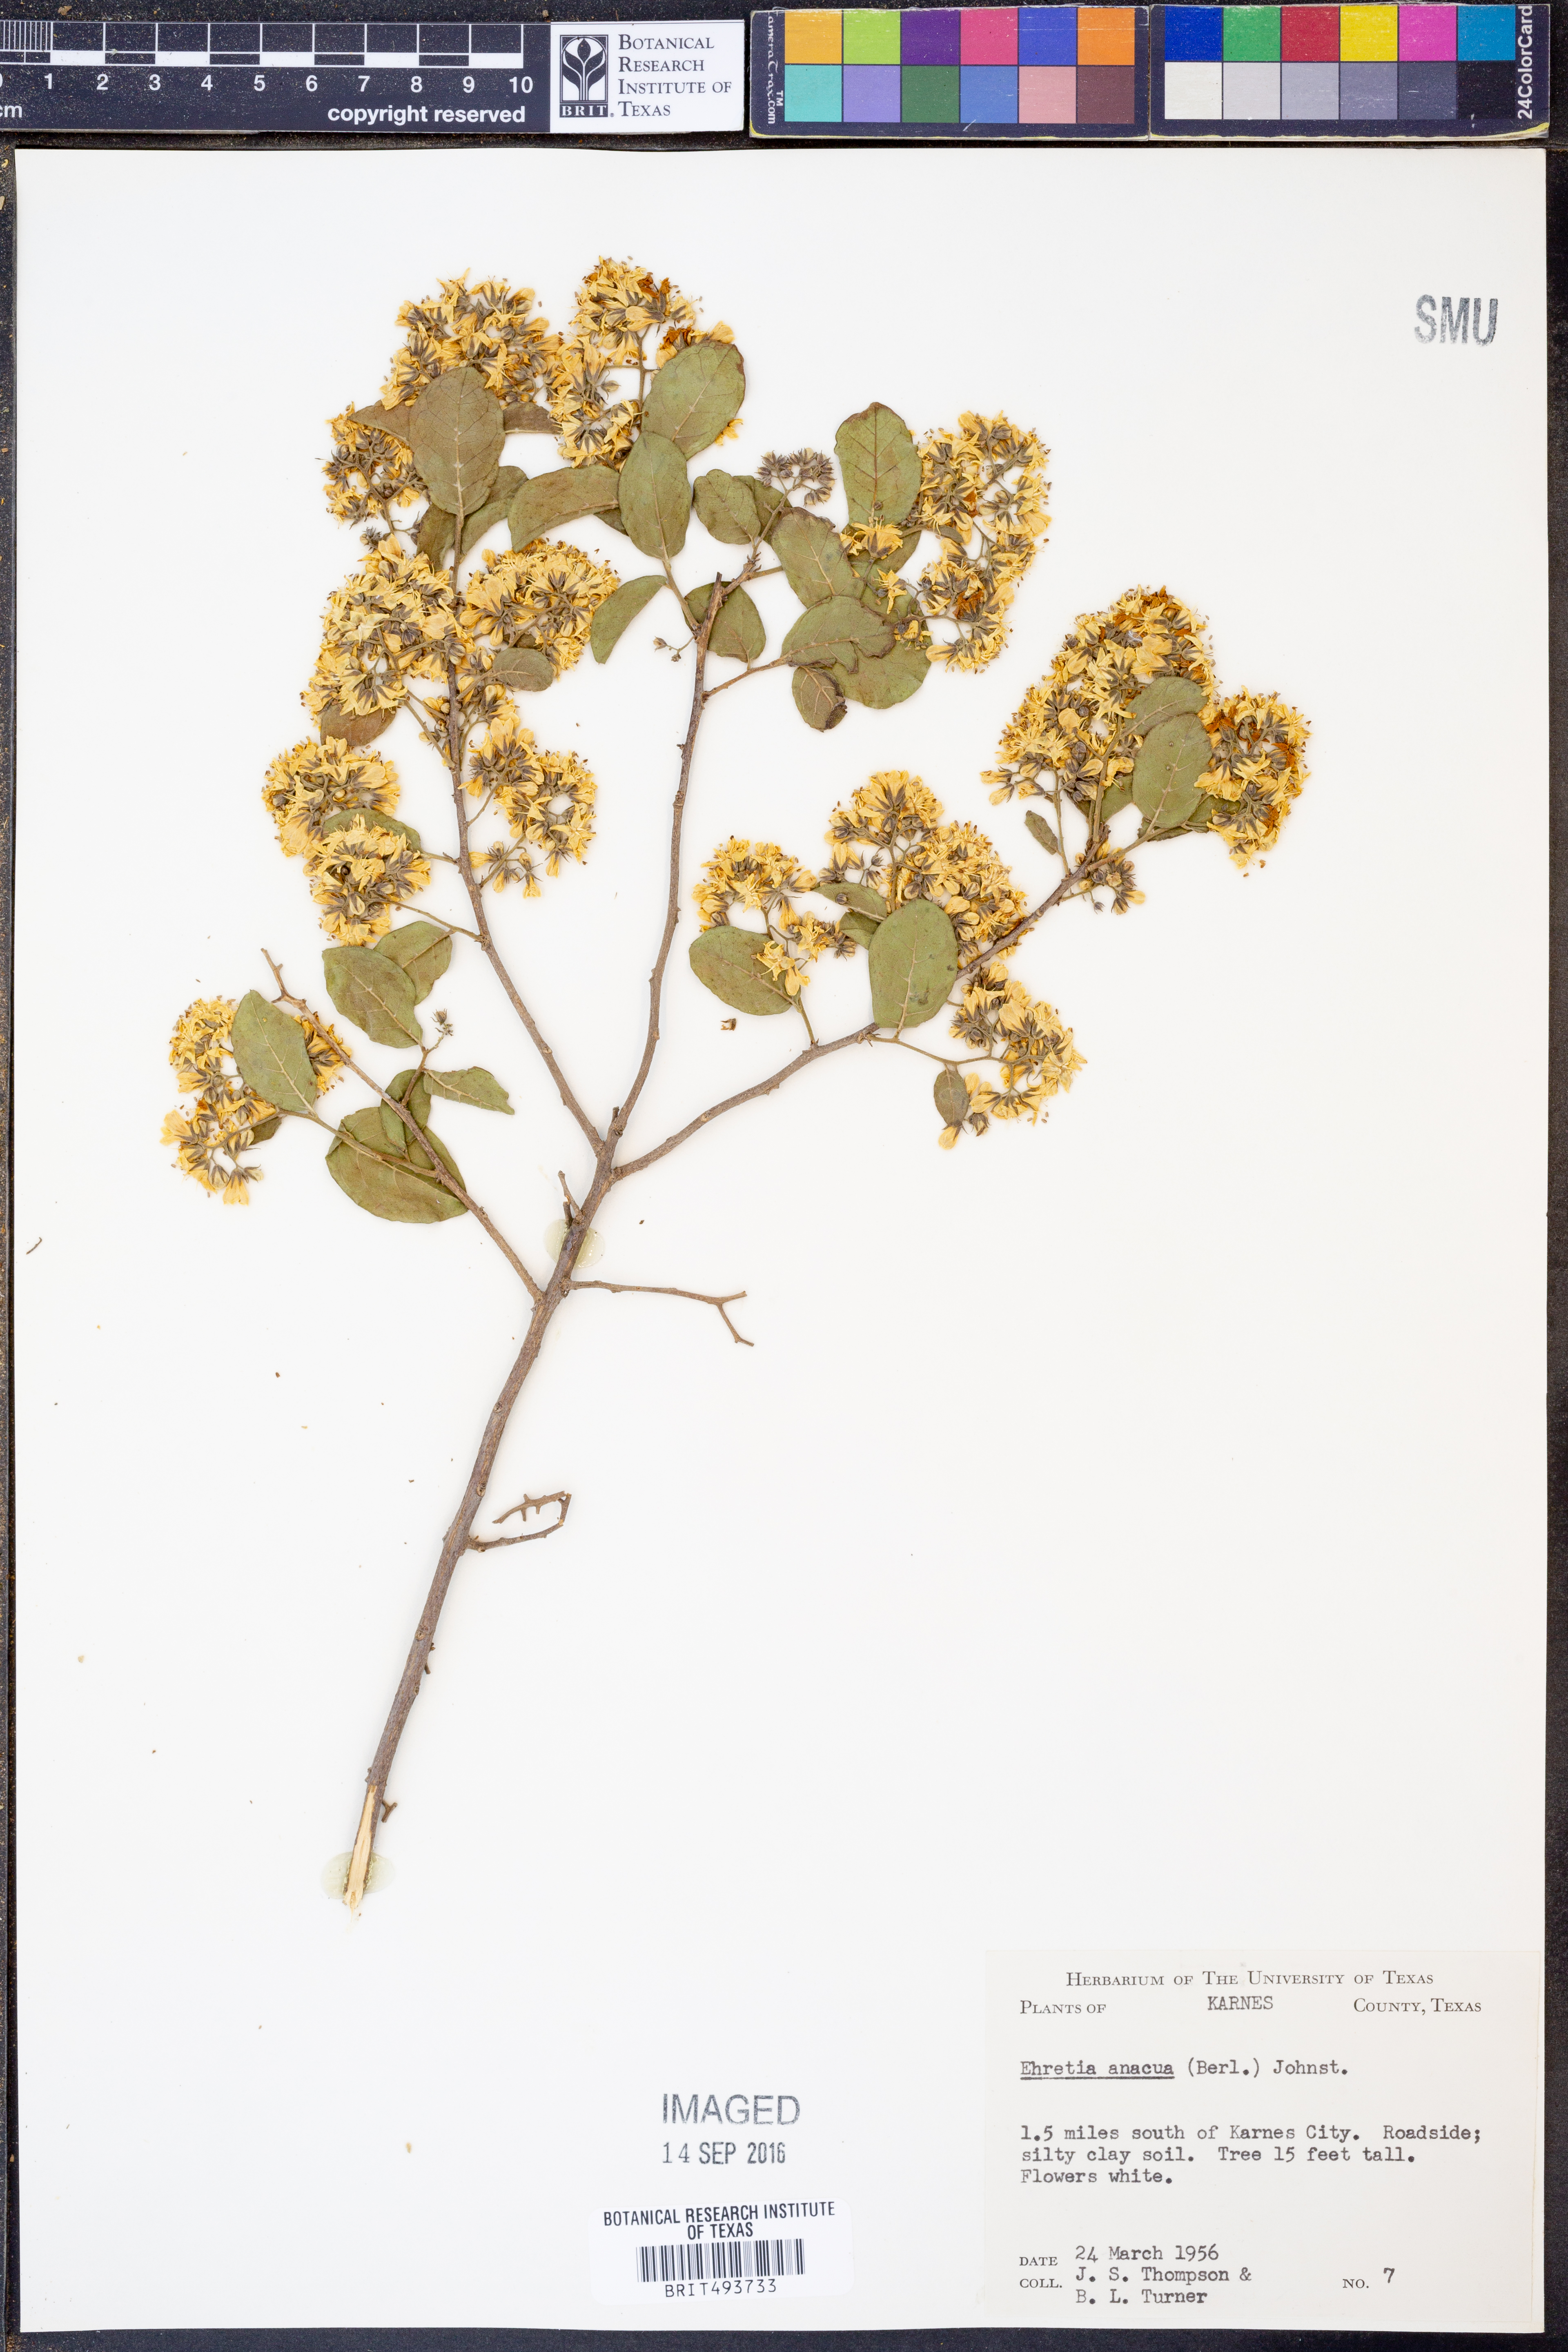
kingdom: Plantae
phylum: Tracheophyta
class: Magnoliopsida
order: Boraginales
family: Ehretiaceae
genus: Ehretia
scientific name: Ehretia anacua
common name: Sugarberry
